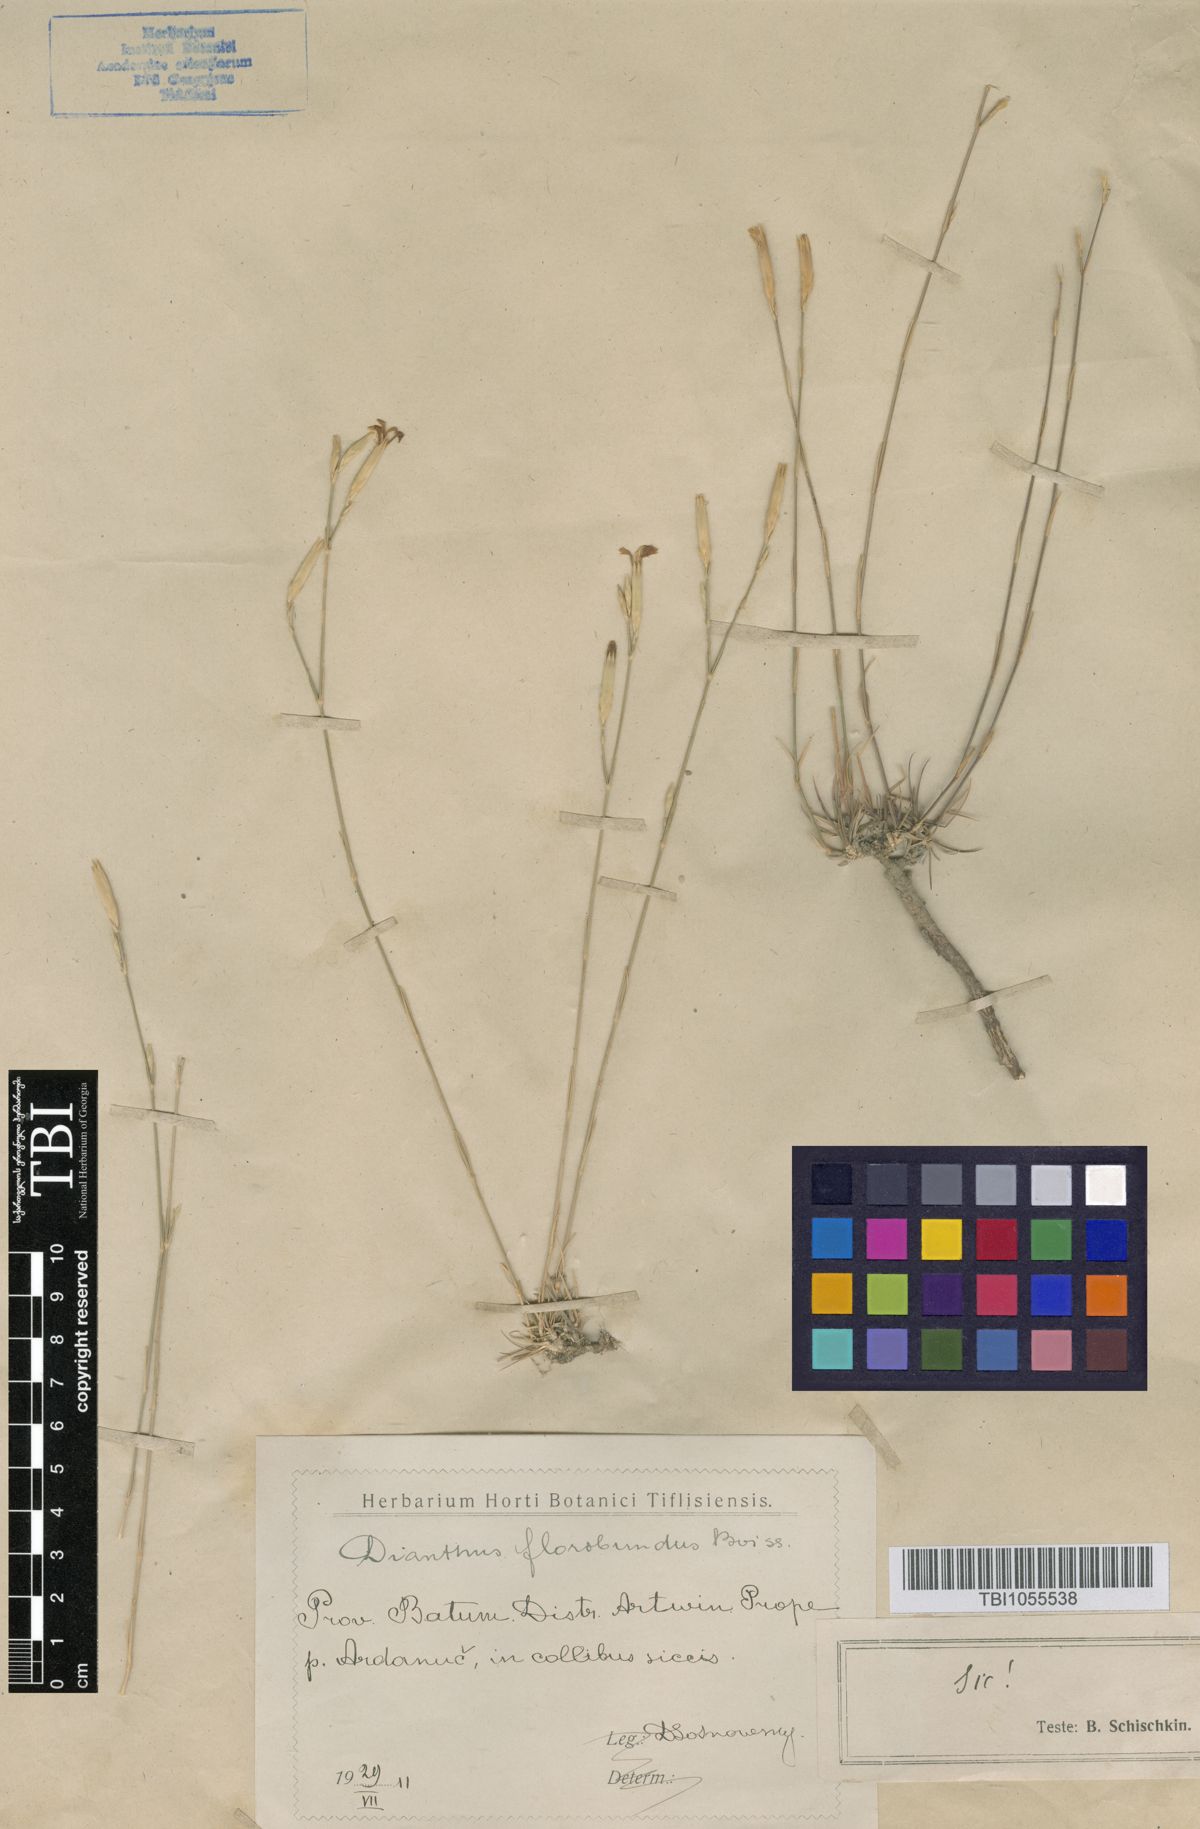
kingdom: Plantae
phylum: Tracheophyta
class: Magnoliopsida
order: Caryophyllales
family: Caryophyllaceae
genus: Dianthus
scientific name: Dianthus floribundus
